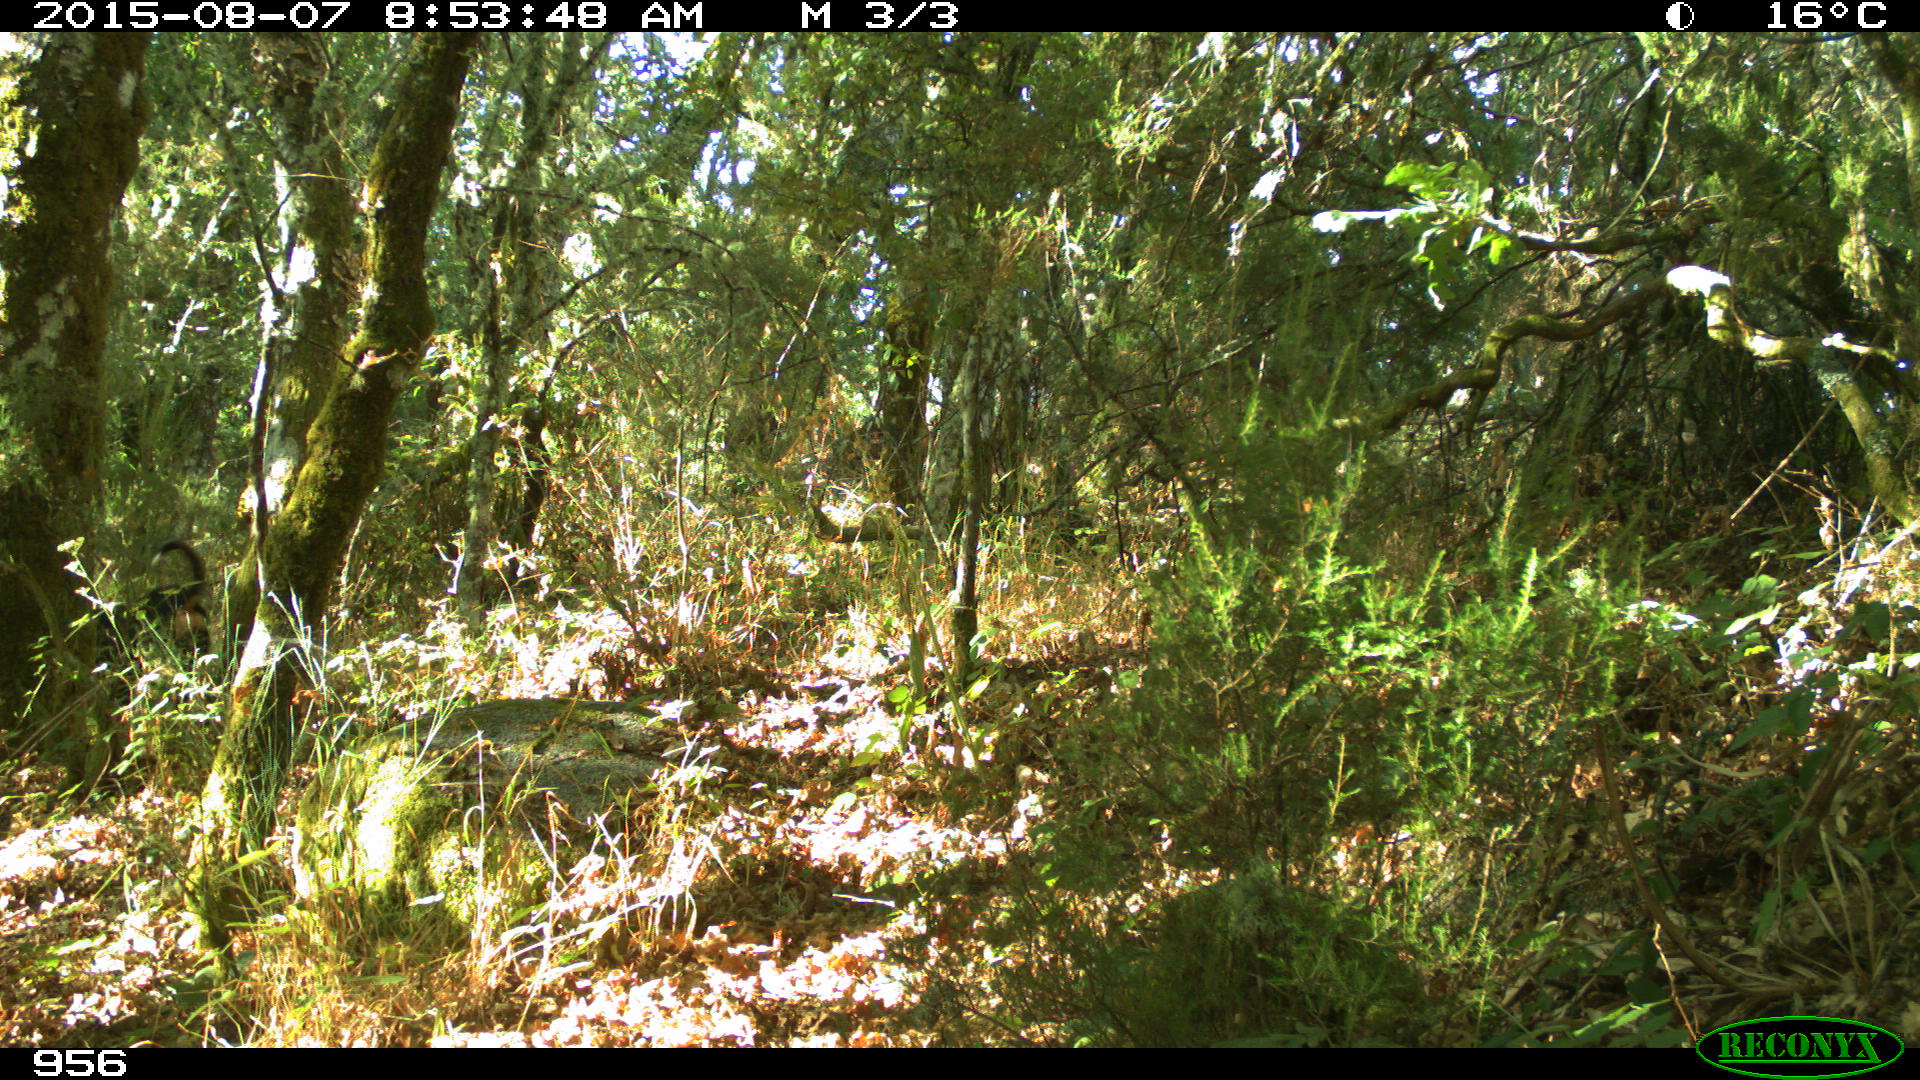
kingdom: Animalia
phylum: Chordata
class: Mammalia
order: Carnivora
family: Canidae
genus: Canis
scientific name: Canis lupus
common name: Gray wolf
